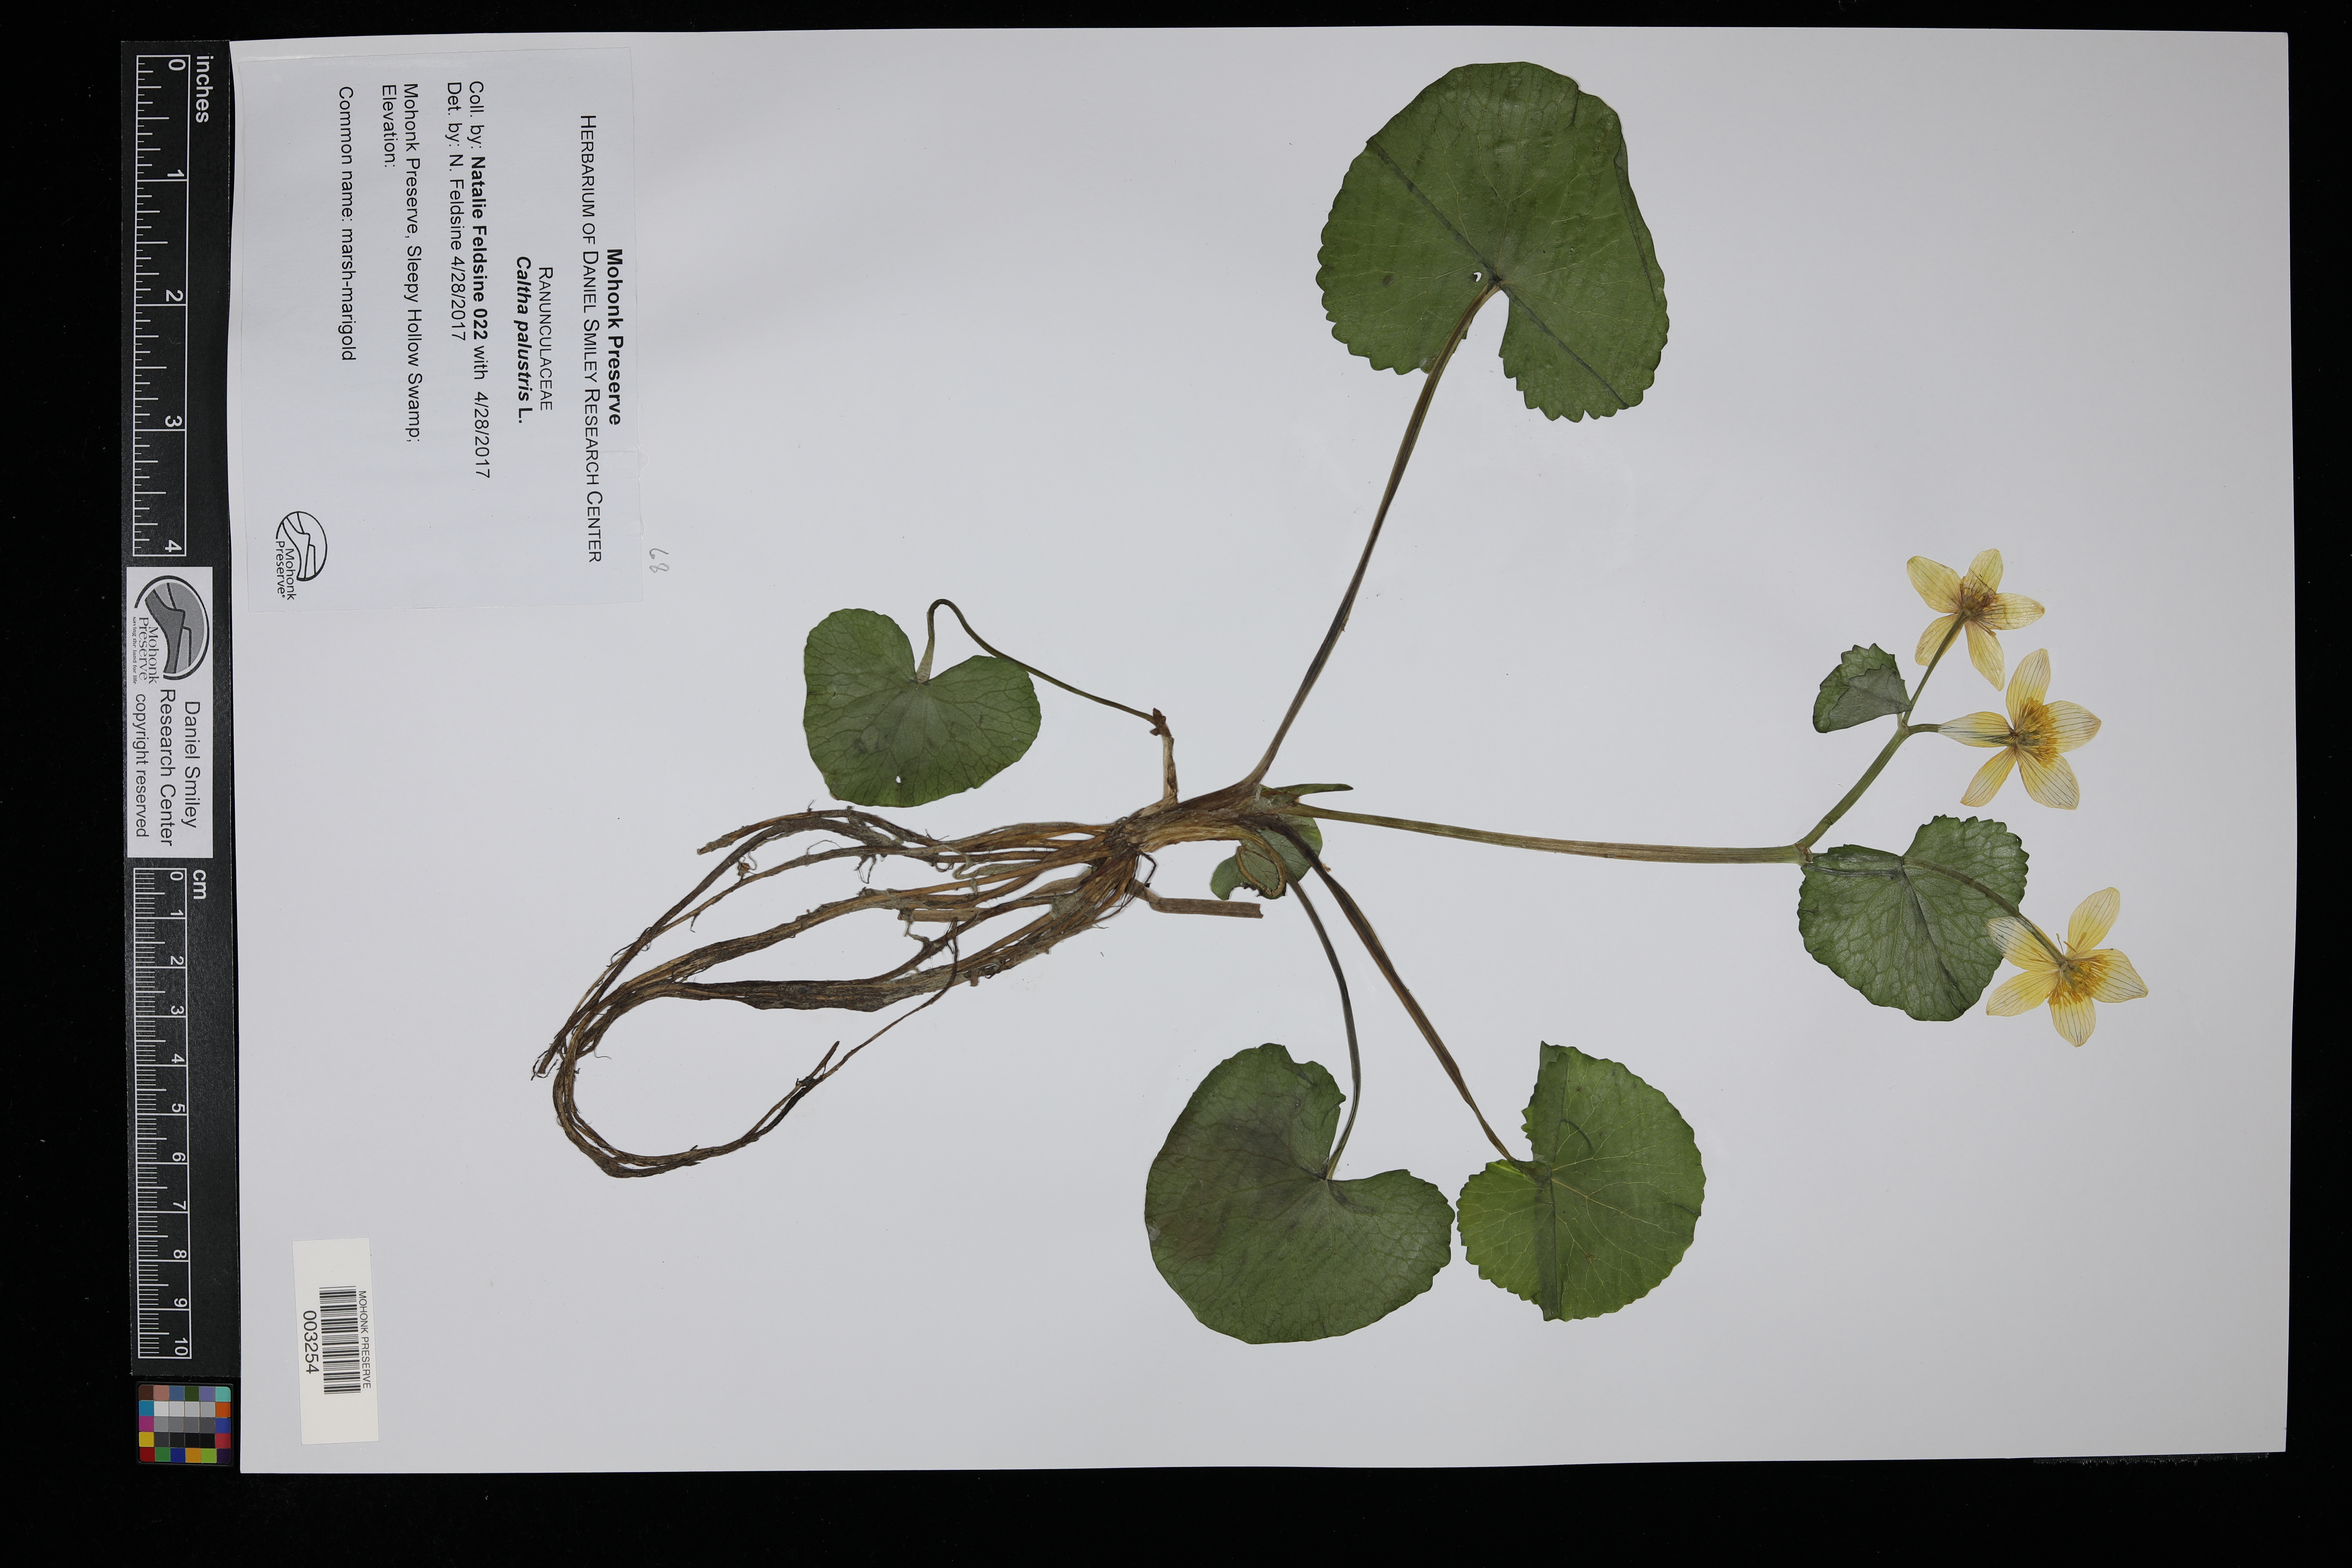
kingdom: Plantae
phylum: Tracheophyta
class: Magnoliopsida
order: Ranunculales
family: Ranunculaceae
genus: Caltha
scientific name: Caltha palustris
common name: Marsh marigold
